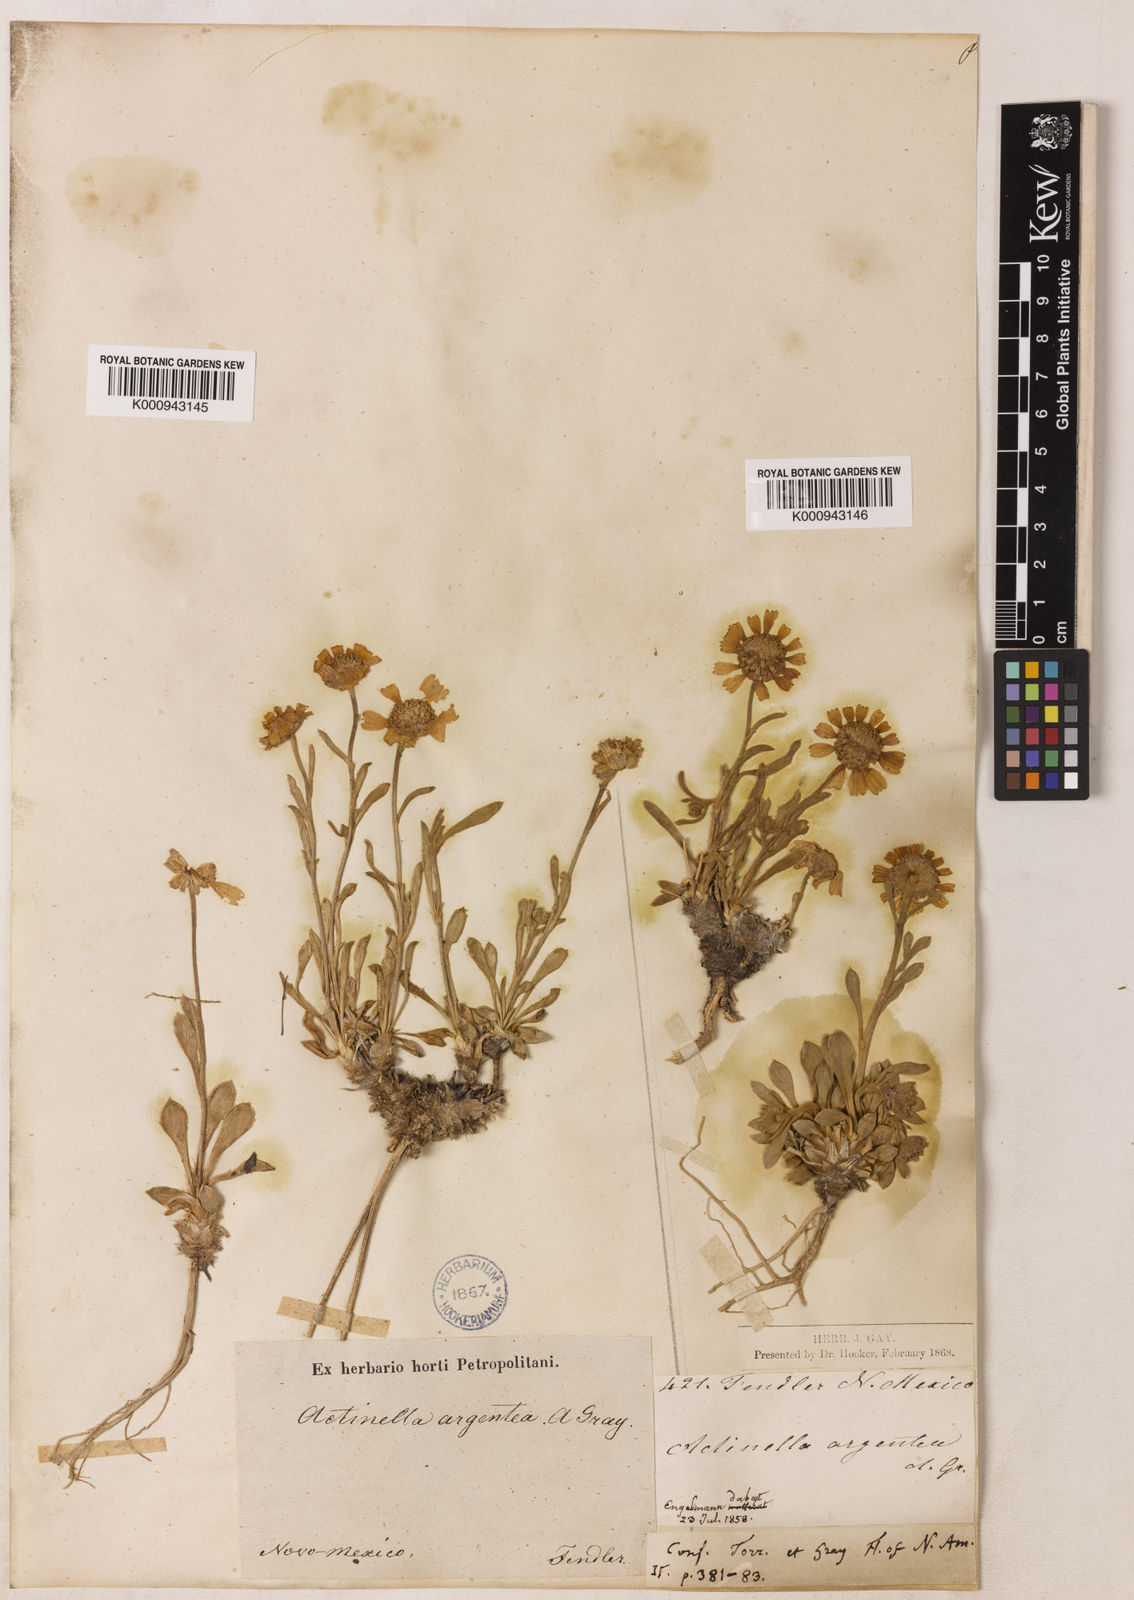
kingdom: Plantae
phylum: Tracheophyta
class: Magnoliopsida
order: Asterales
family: Asteraceae
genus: Tetraneuris
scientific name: Tetraneuris argentea
